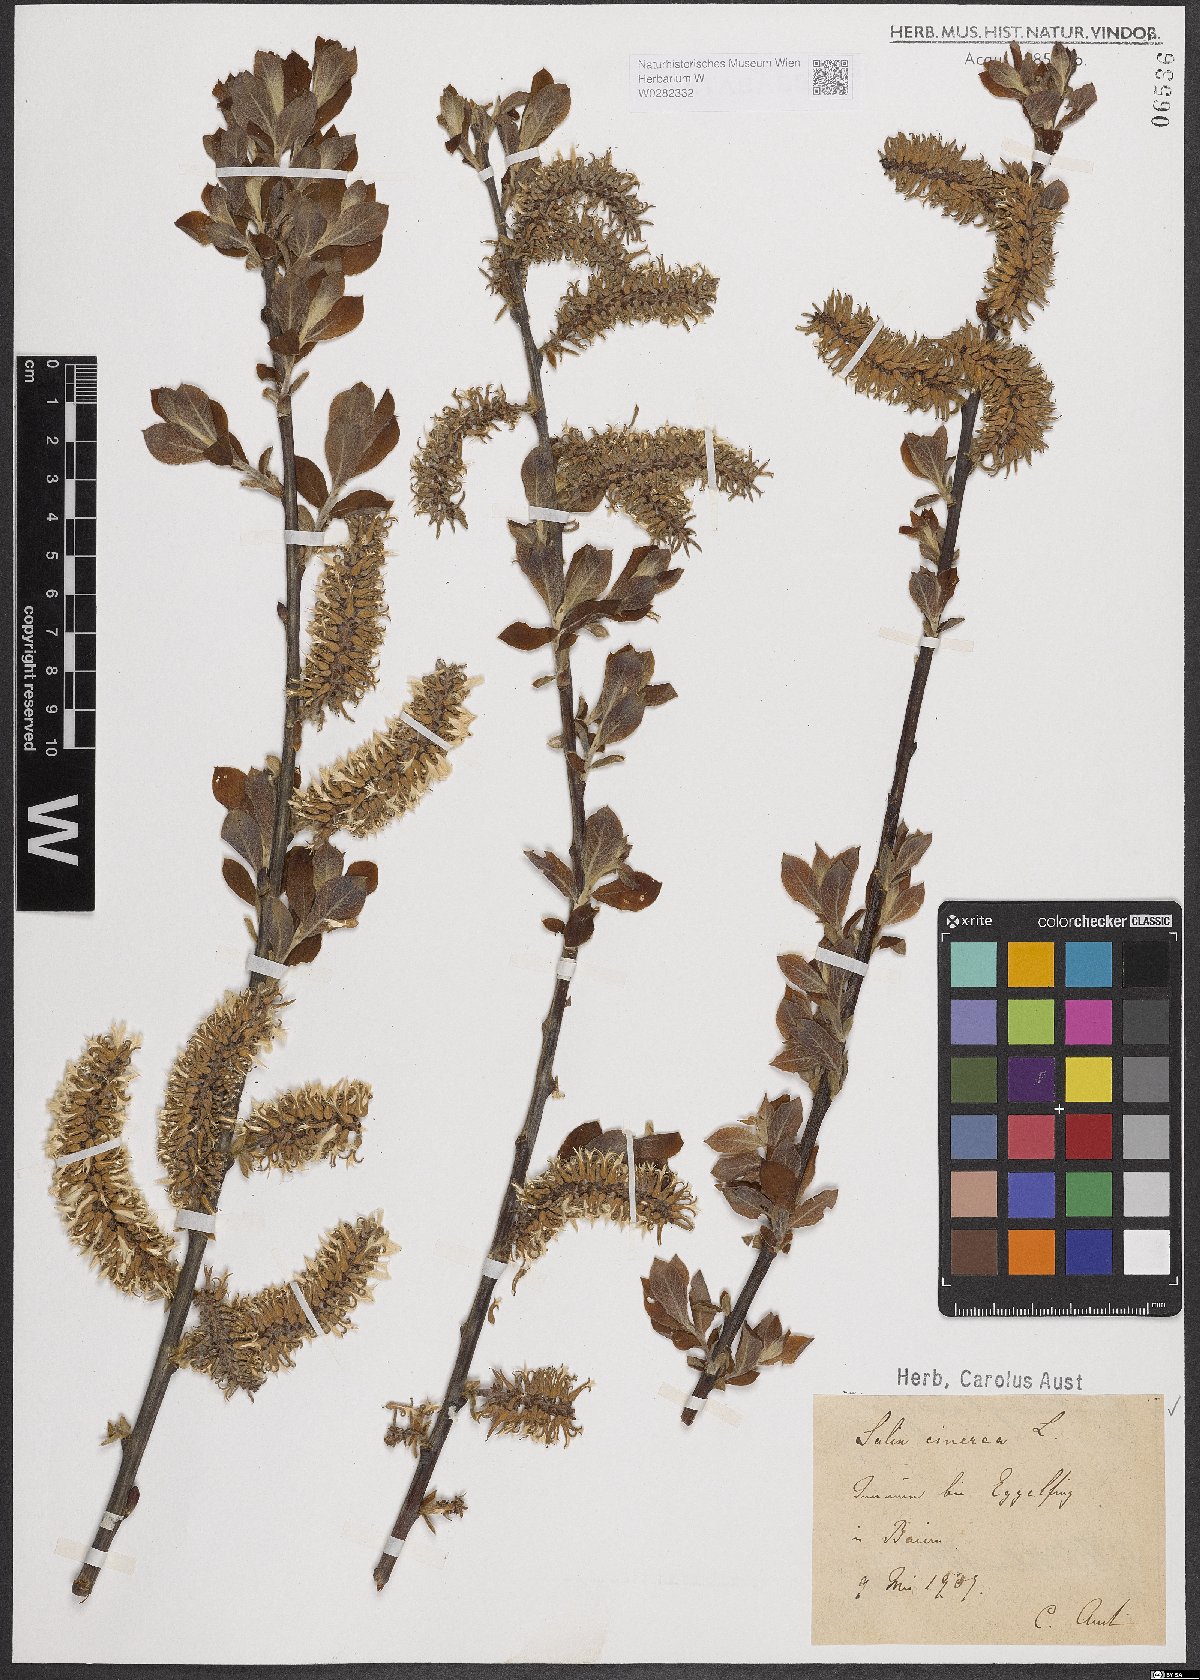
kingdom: Plantae
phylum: Tracheophyta
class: Magnoliopsida
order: Malpighiales
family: Salicaceae
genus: Salix
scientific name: Salix cinerea
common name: Common sallow
